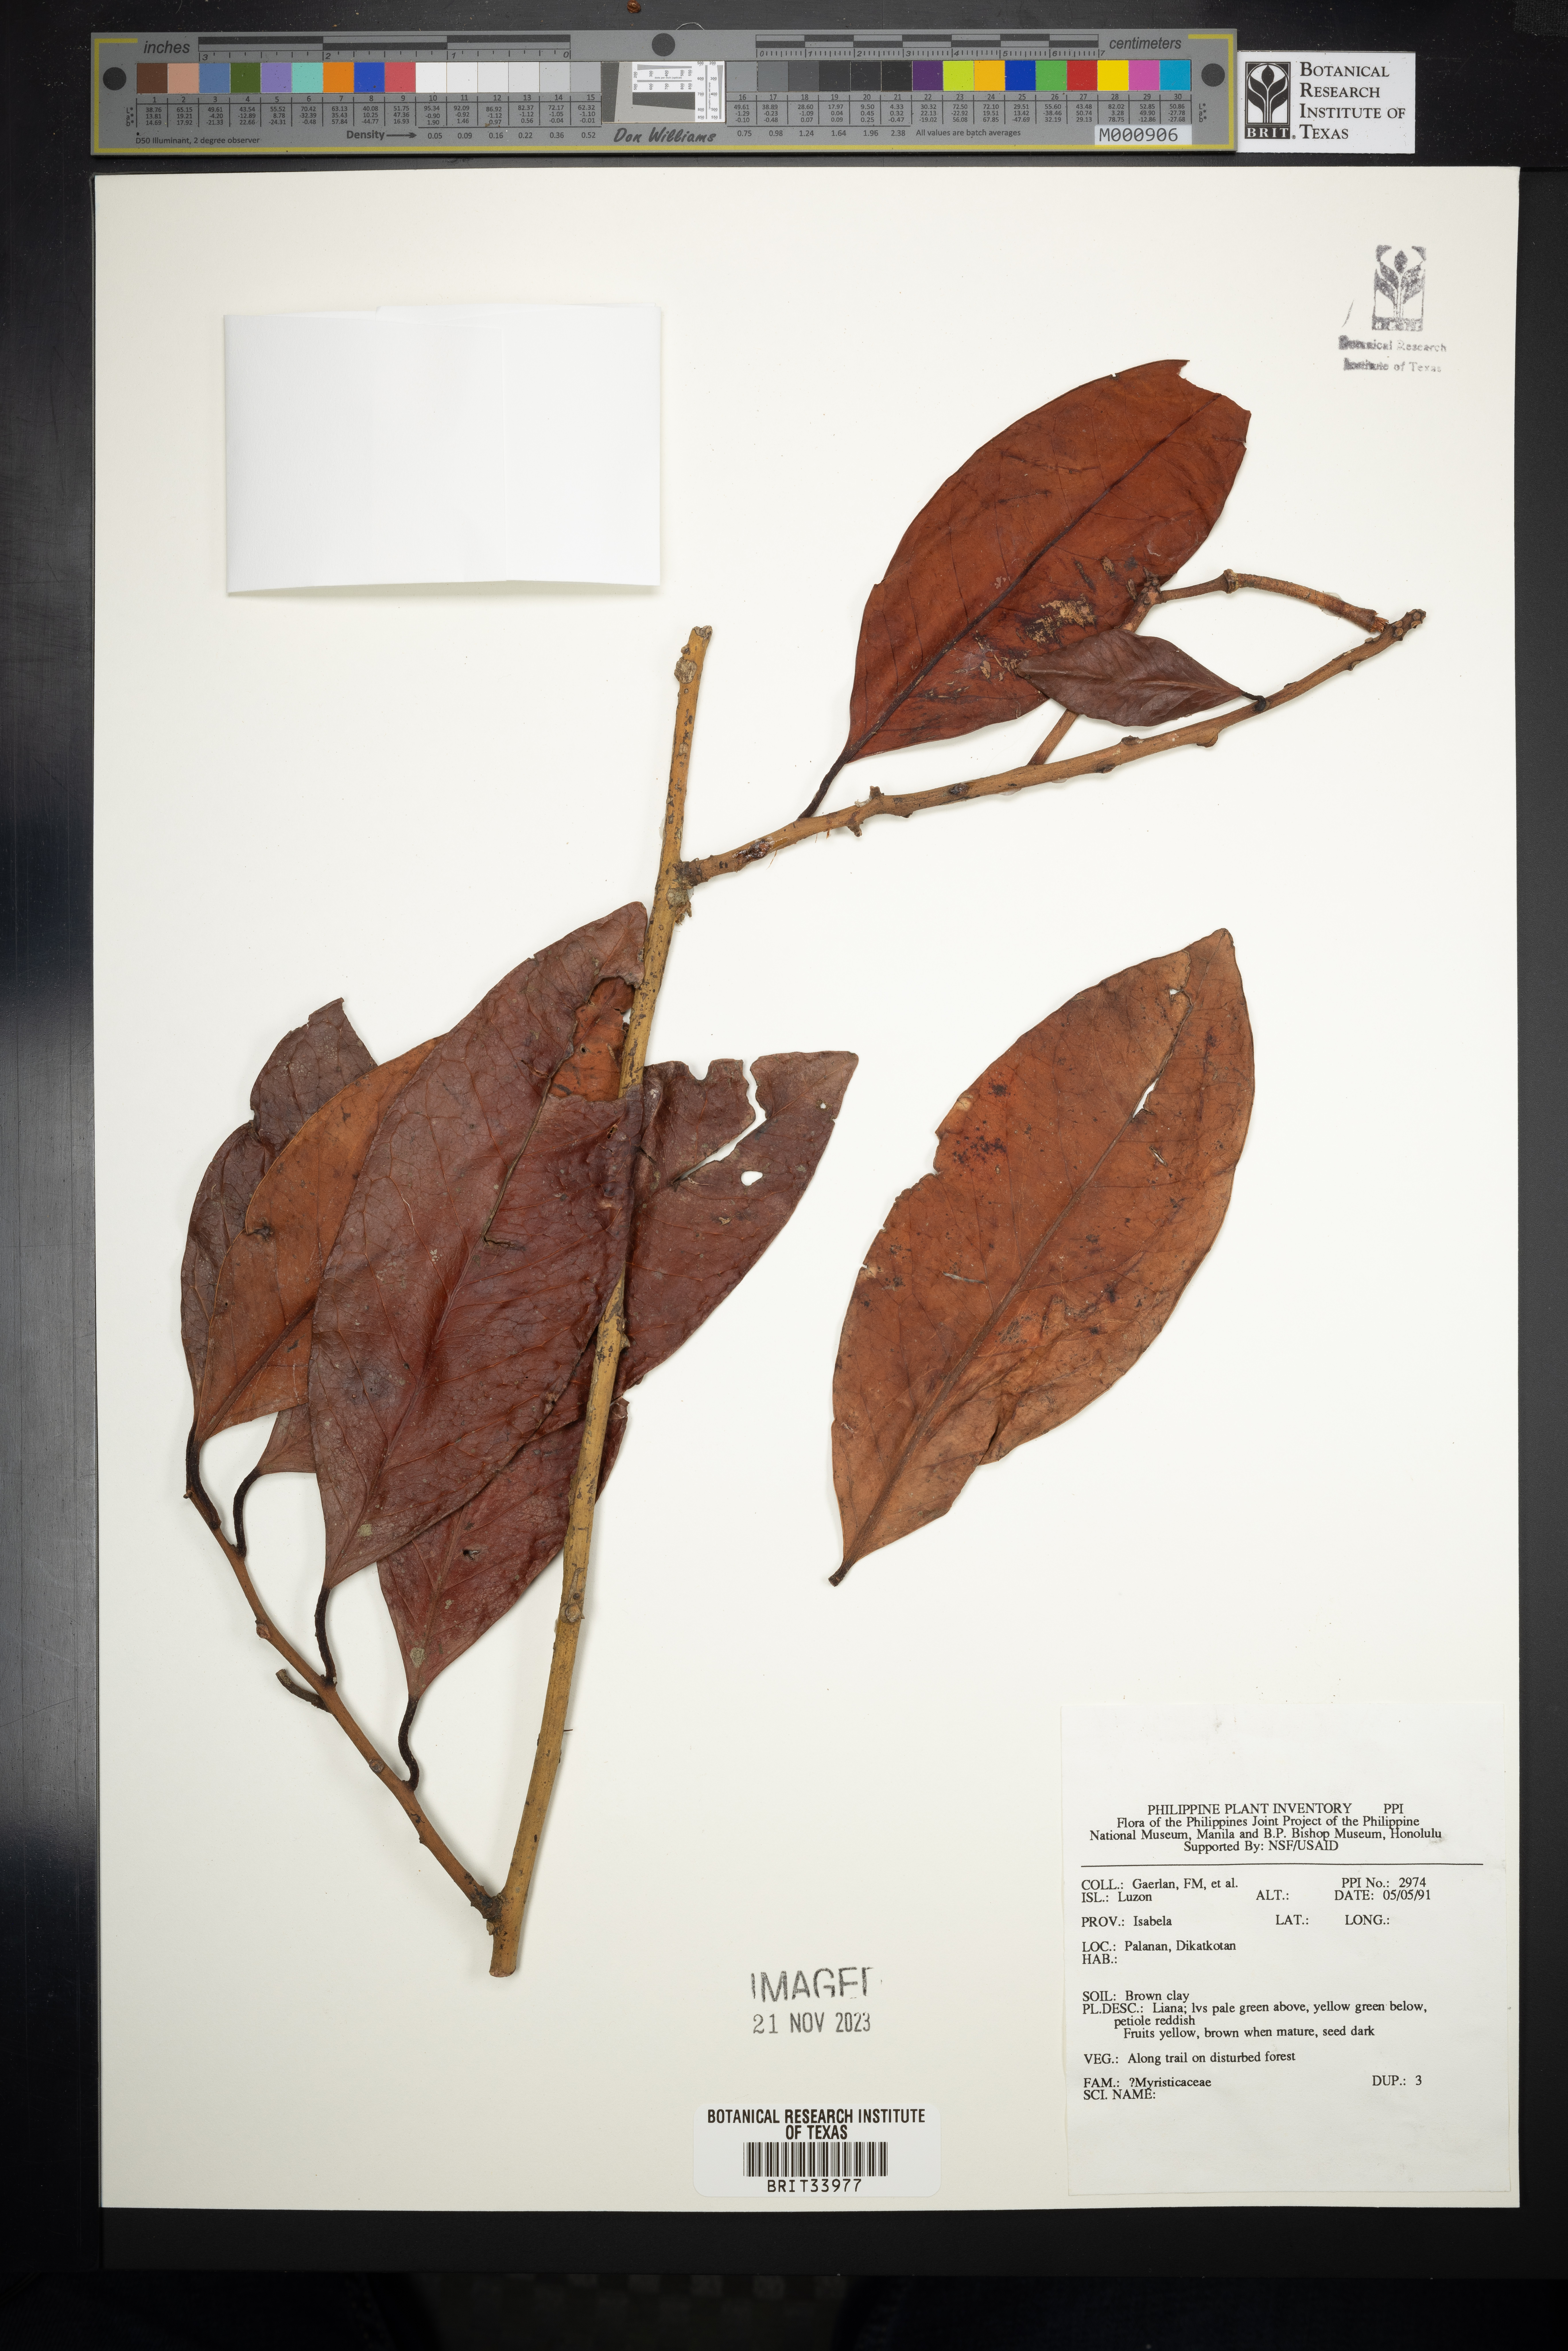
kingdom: Plantae
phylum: Tracheophyta
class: Magnoliopsida
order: Magnoliales
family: Myristicaceae
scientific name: Myristicaceae
